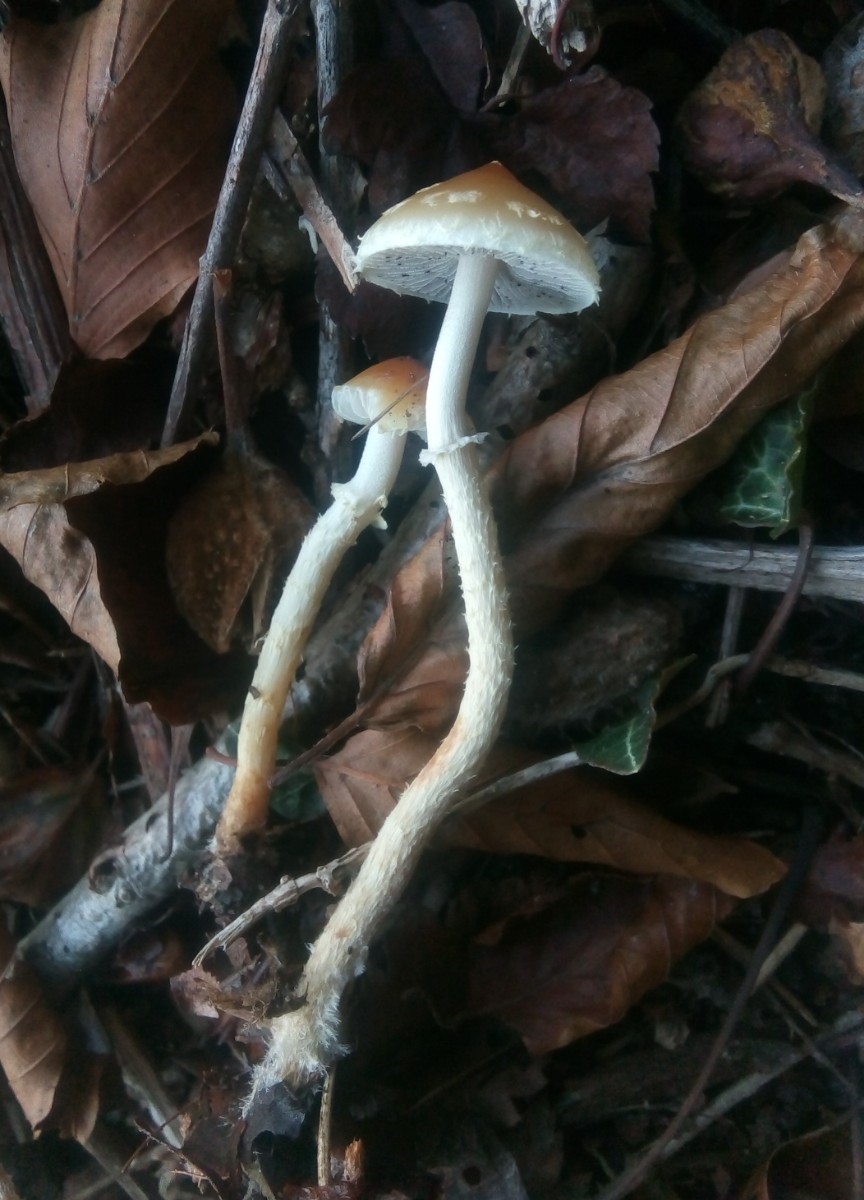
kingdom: Fungi
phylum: Basidiomycota
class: Agaricomycetes
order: Agaricales
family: Strophariaceae
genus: Leratiomyces
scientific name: Leratiomyces squamosus
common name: skællet bredblad
